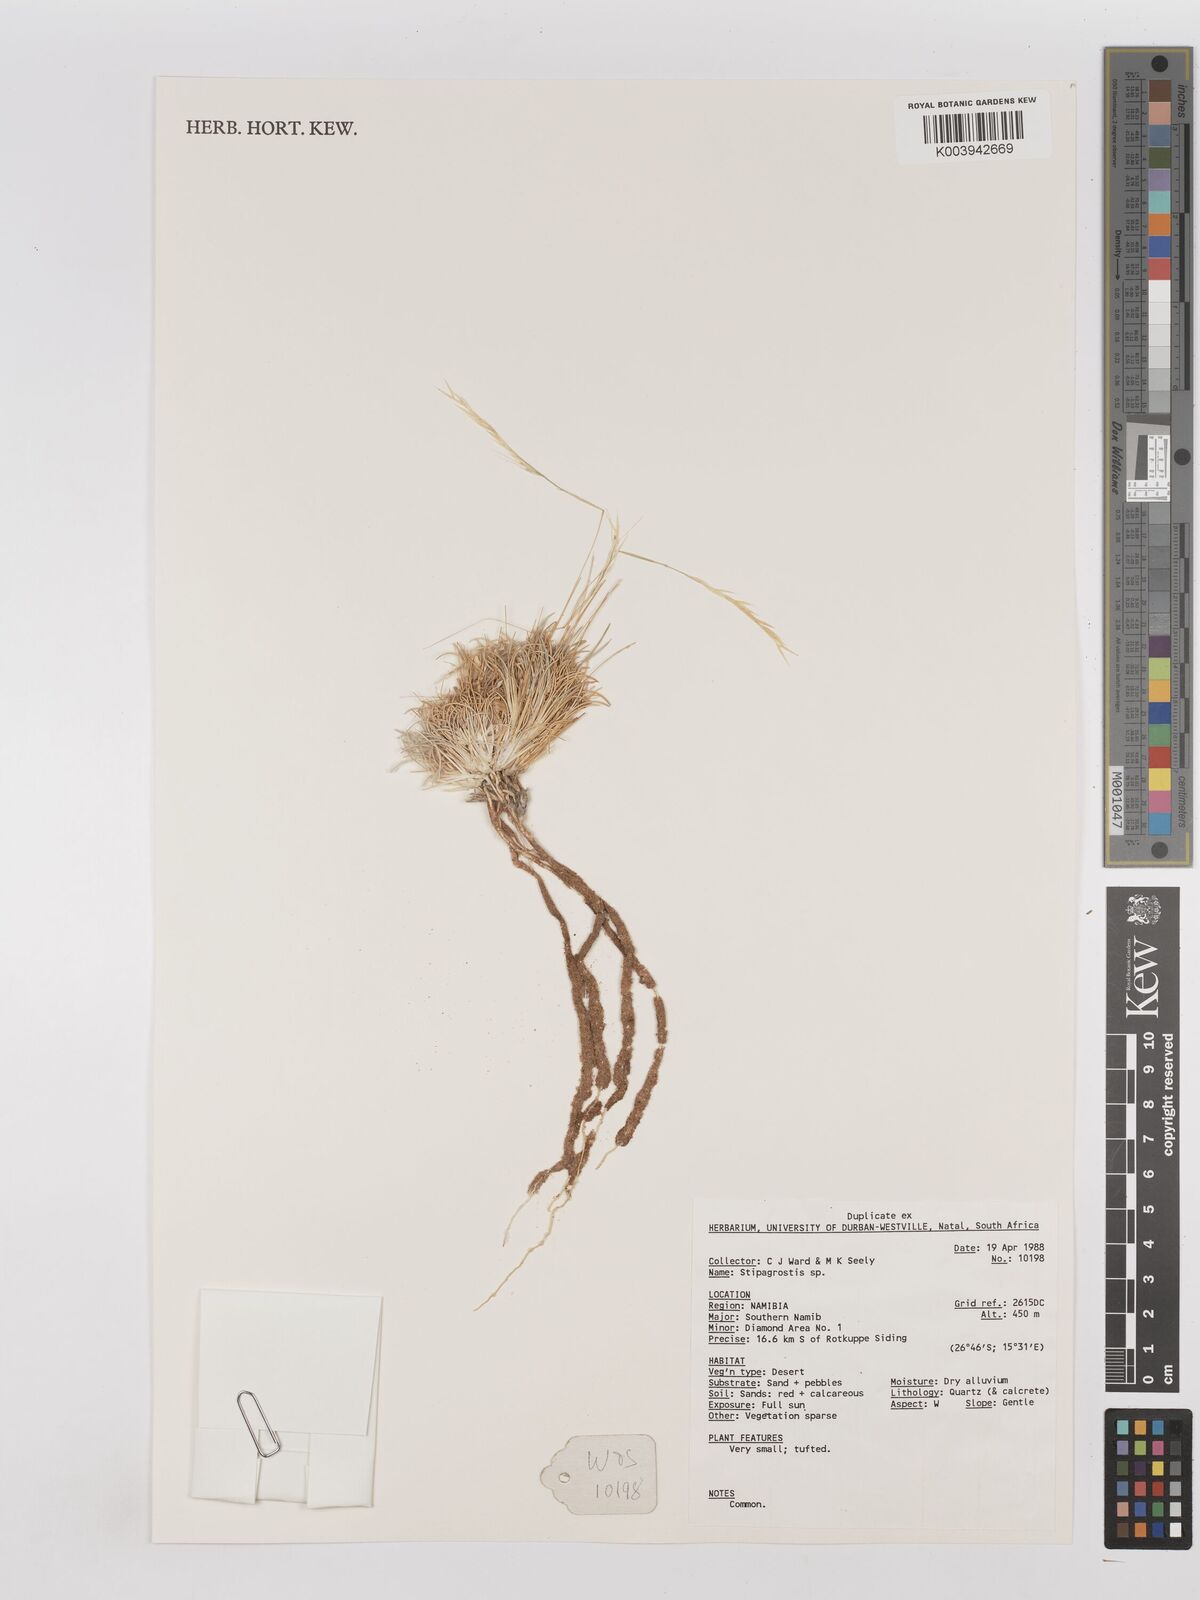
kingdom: Plantae
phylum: Tracheophyta
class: Liliopsida
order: Poales
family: Poaceae
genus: Stipagrostis
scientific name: Stipagrostis
